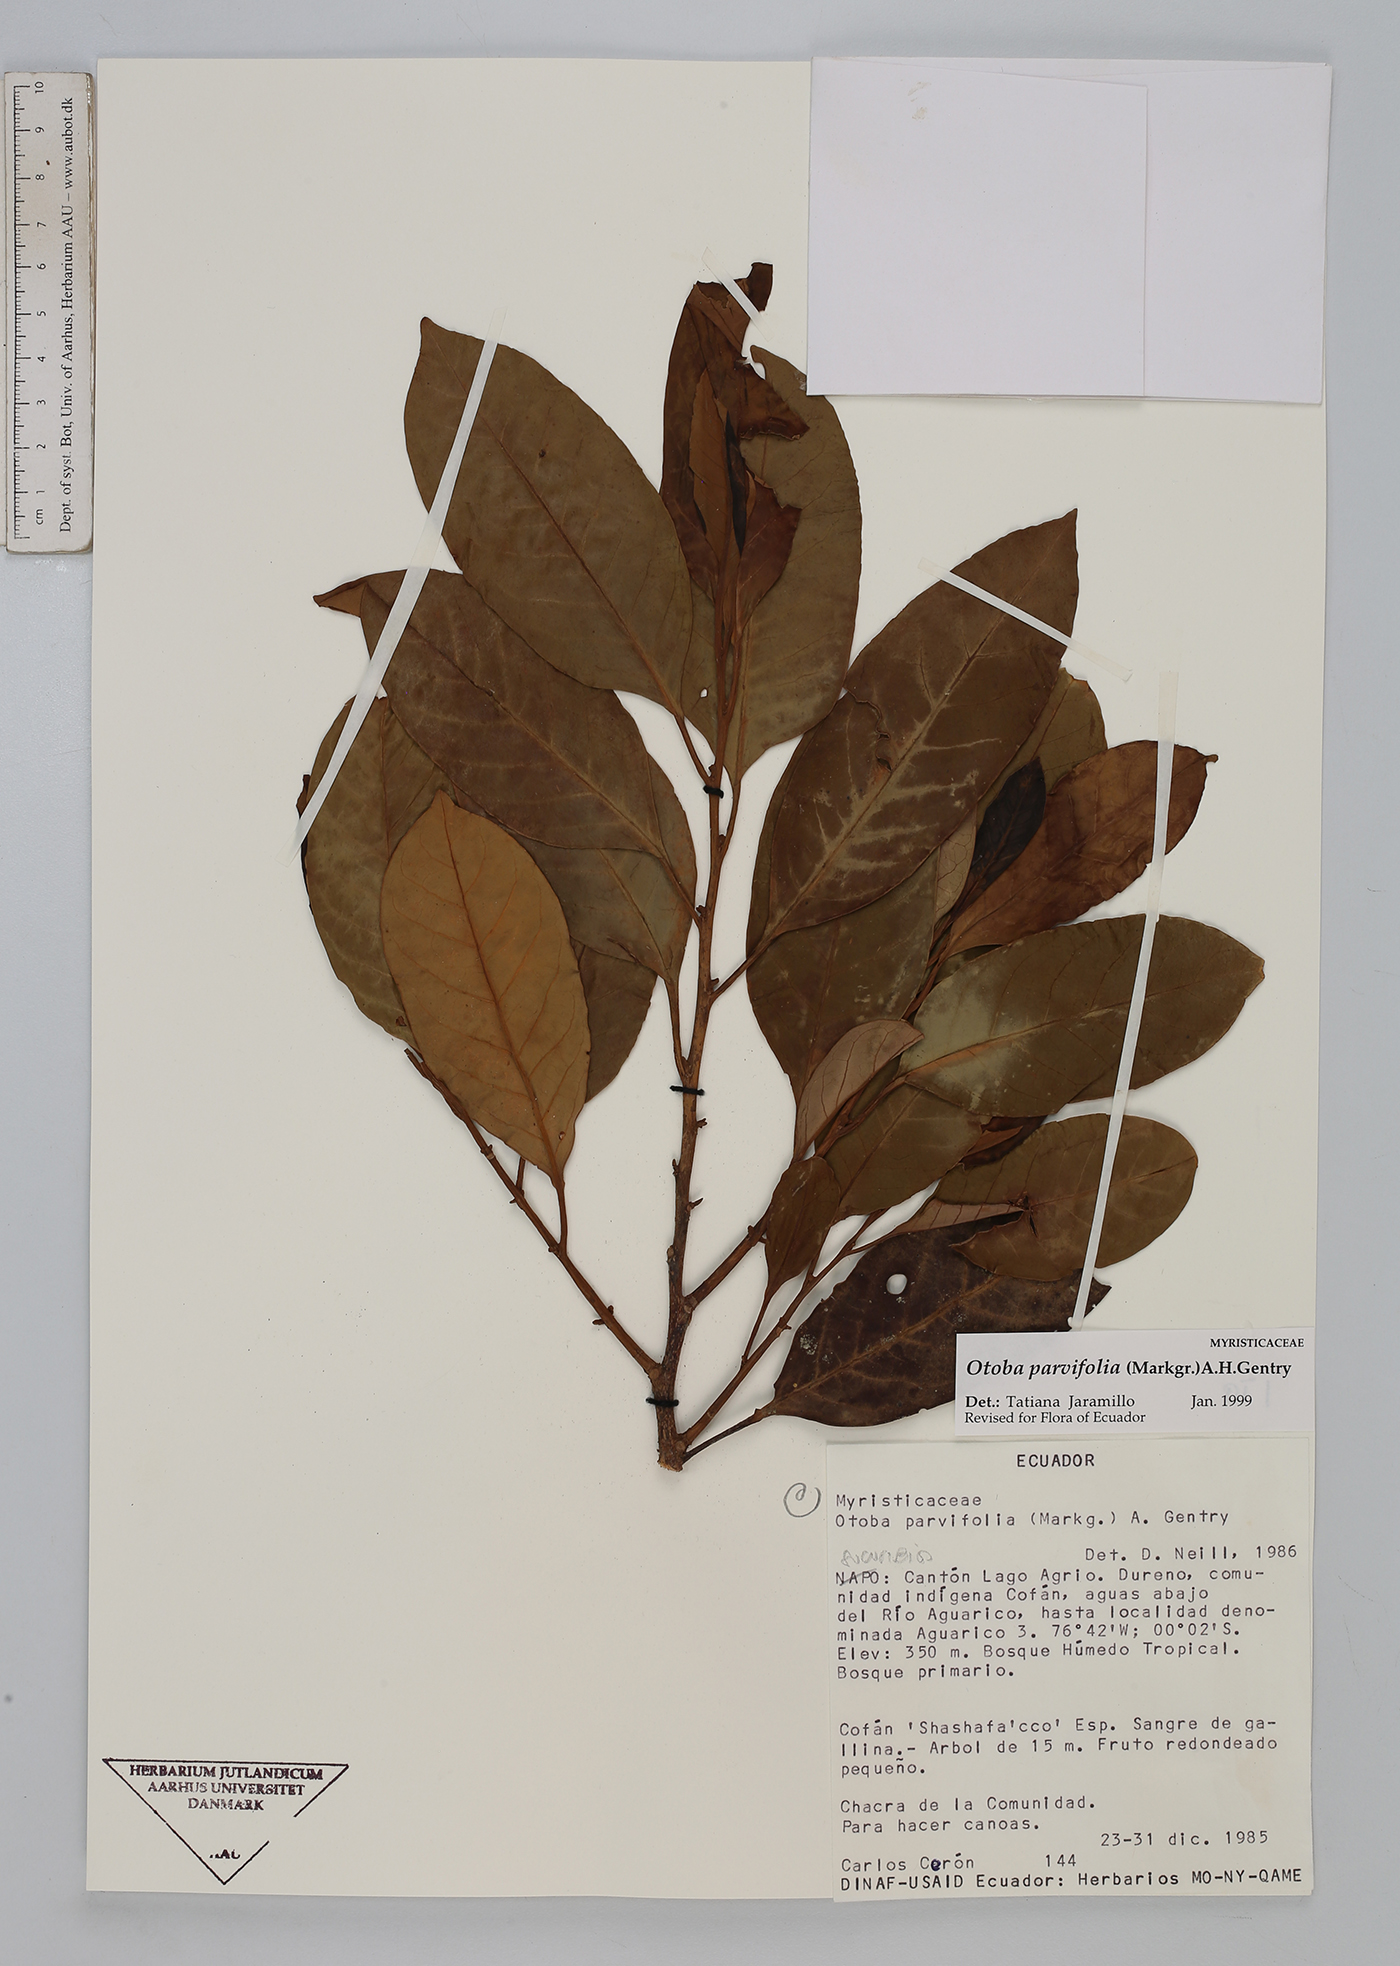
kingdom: Plantae
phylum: Tracheophyta
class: Magnoliopsida
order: Magnoliales
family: Myristicaceae
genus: Otoba
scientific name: Otoba parvifolia
